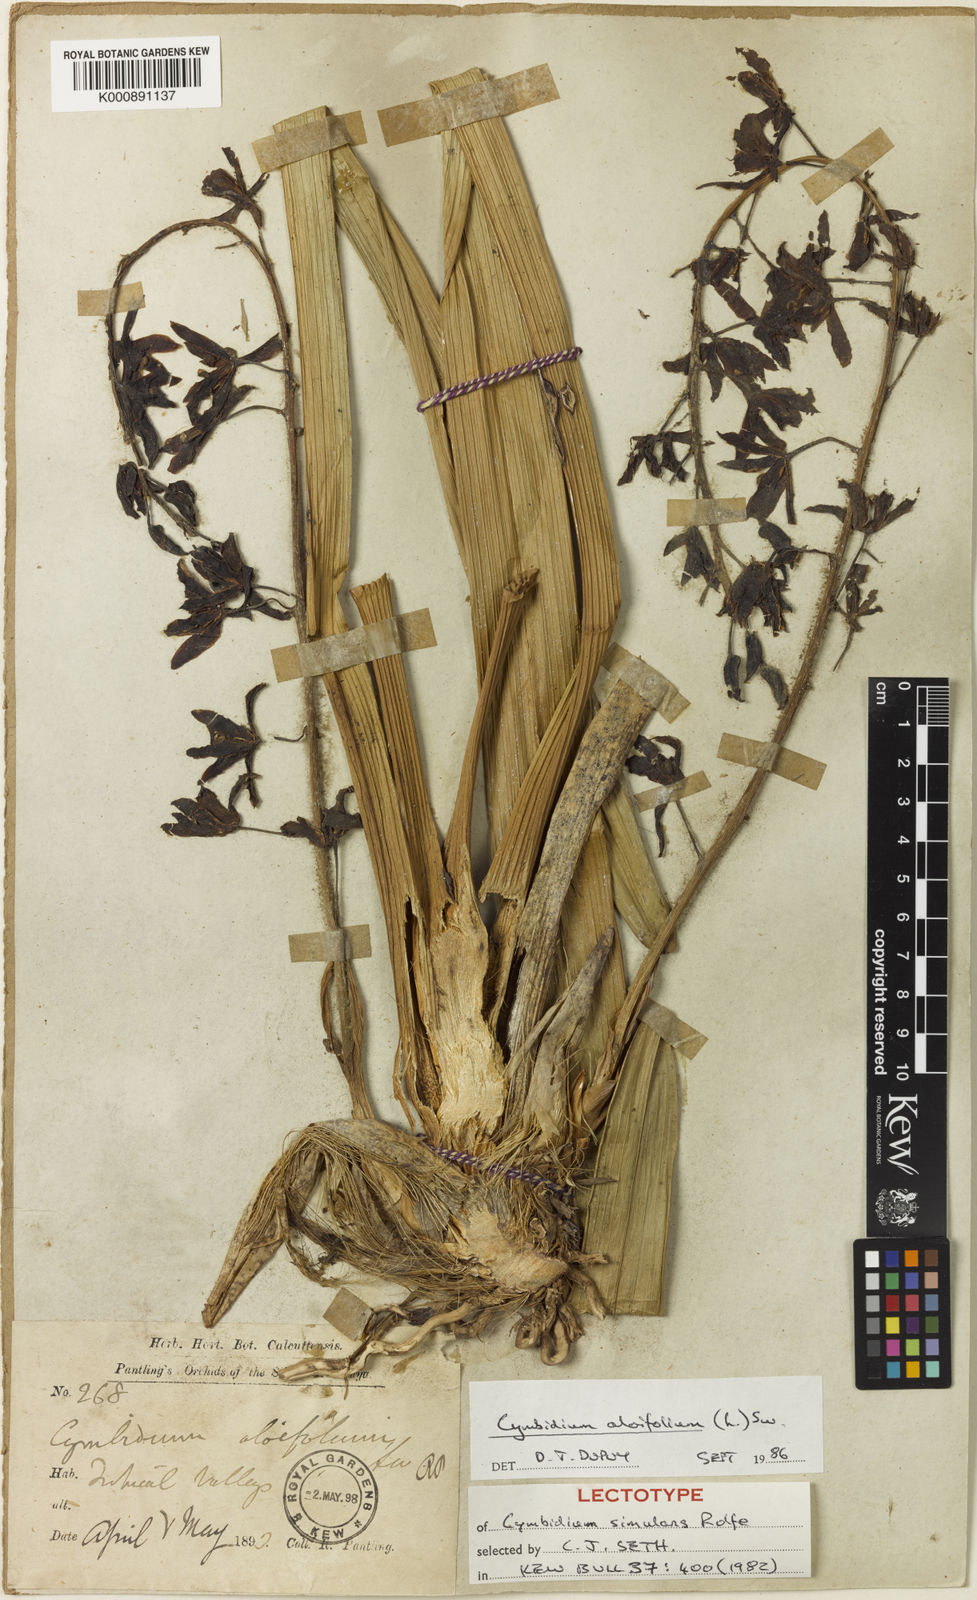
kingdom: Plantae
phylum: Tracheophyta
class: Liliopsida
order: Asparagales
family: Orchidaceae
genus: Cymbidium
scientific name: Cymbidium aloifolium
